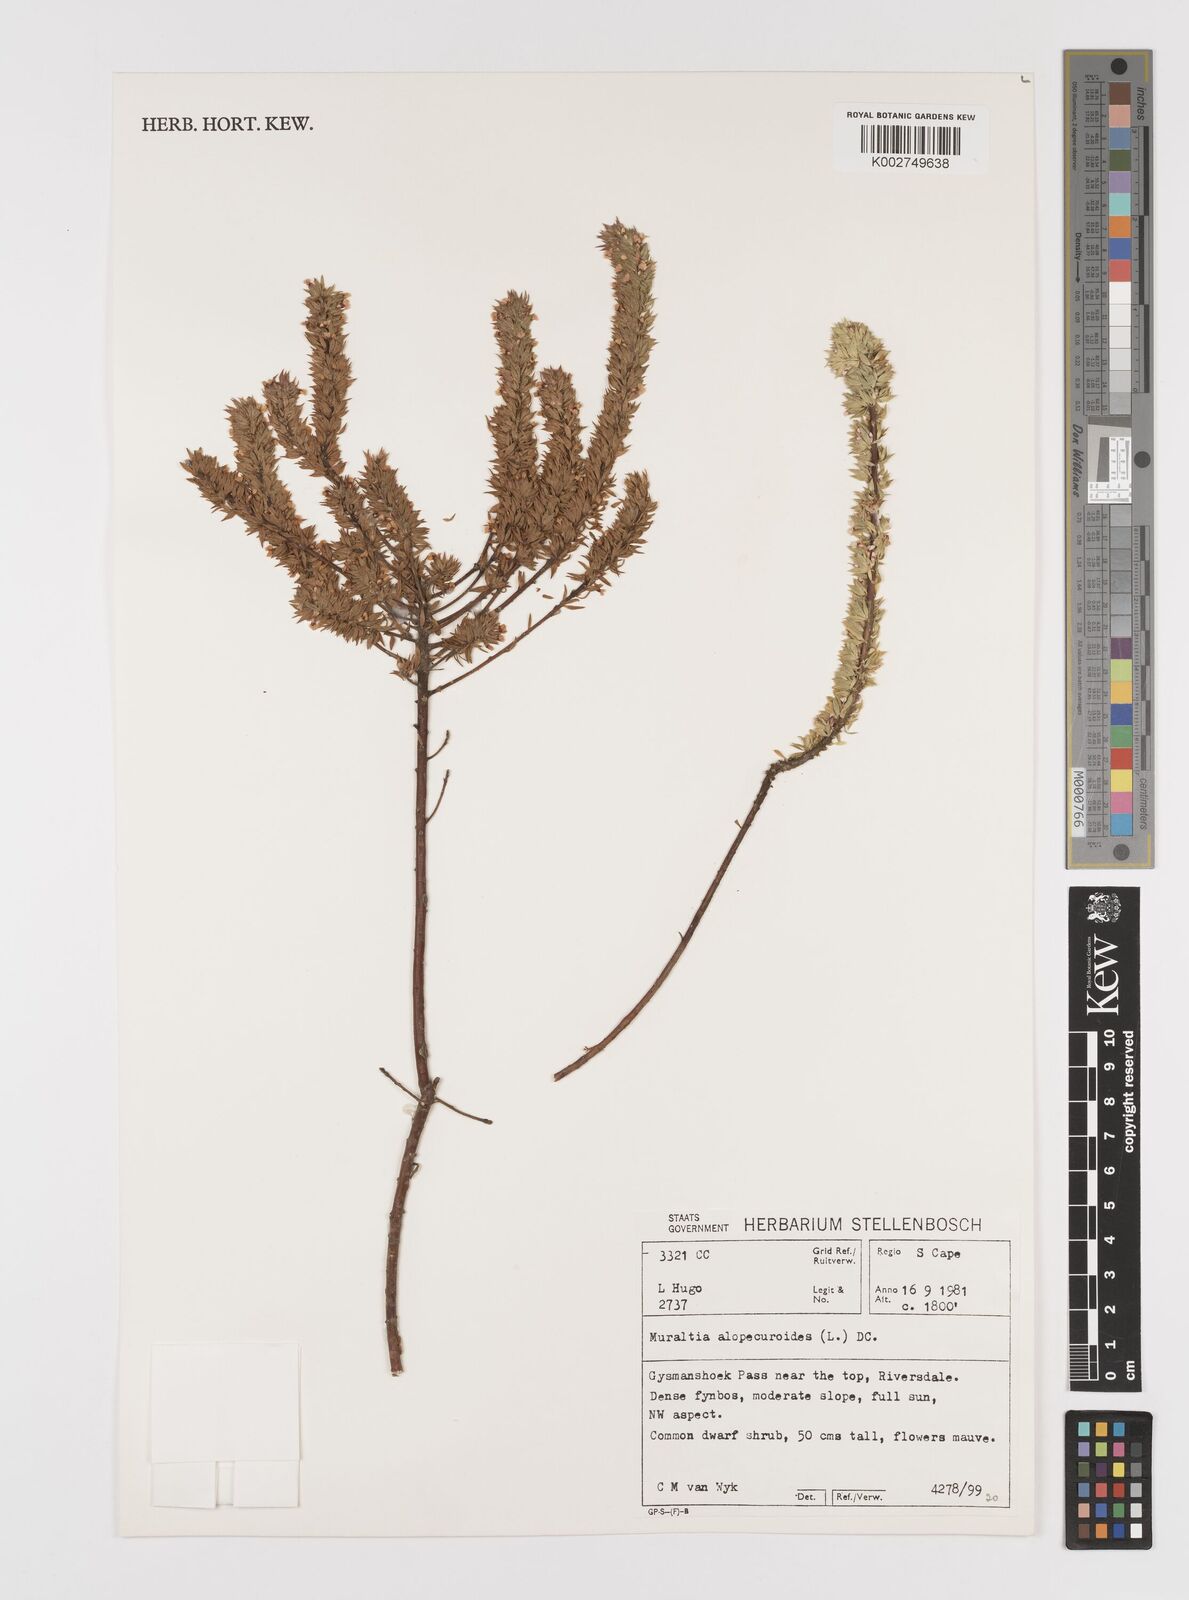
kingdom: Plantae
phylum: Tracheophyta
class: Magnoliopsida
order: Fabales
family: Polygalaceae
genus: Muraltia
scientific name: Muraltia alopecuroides
